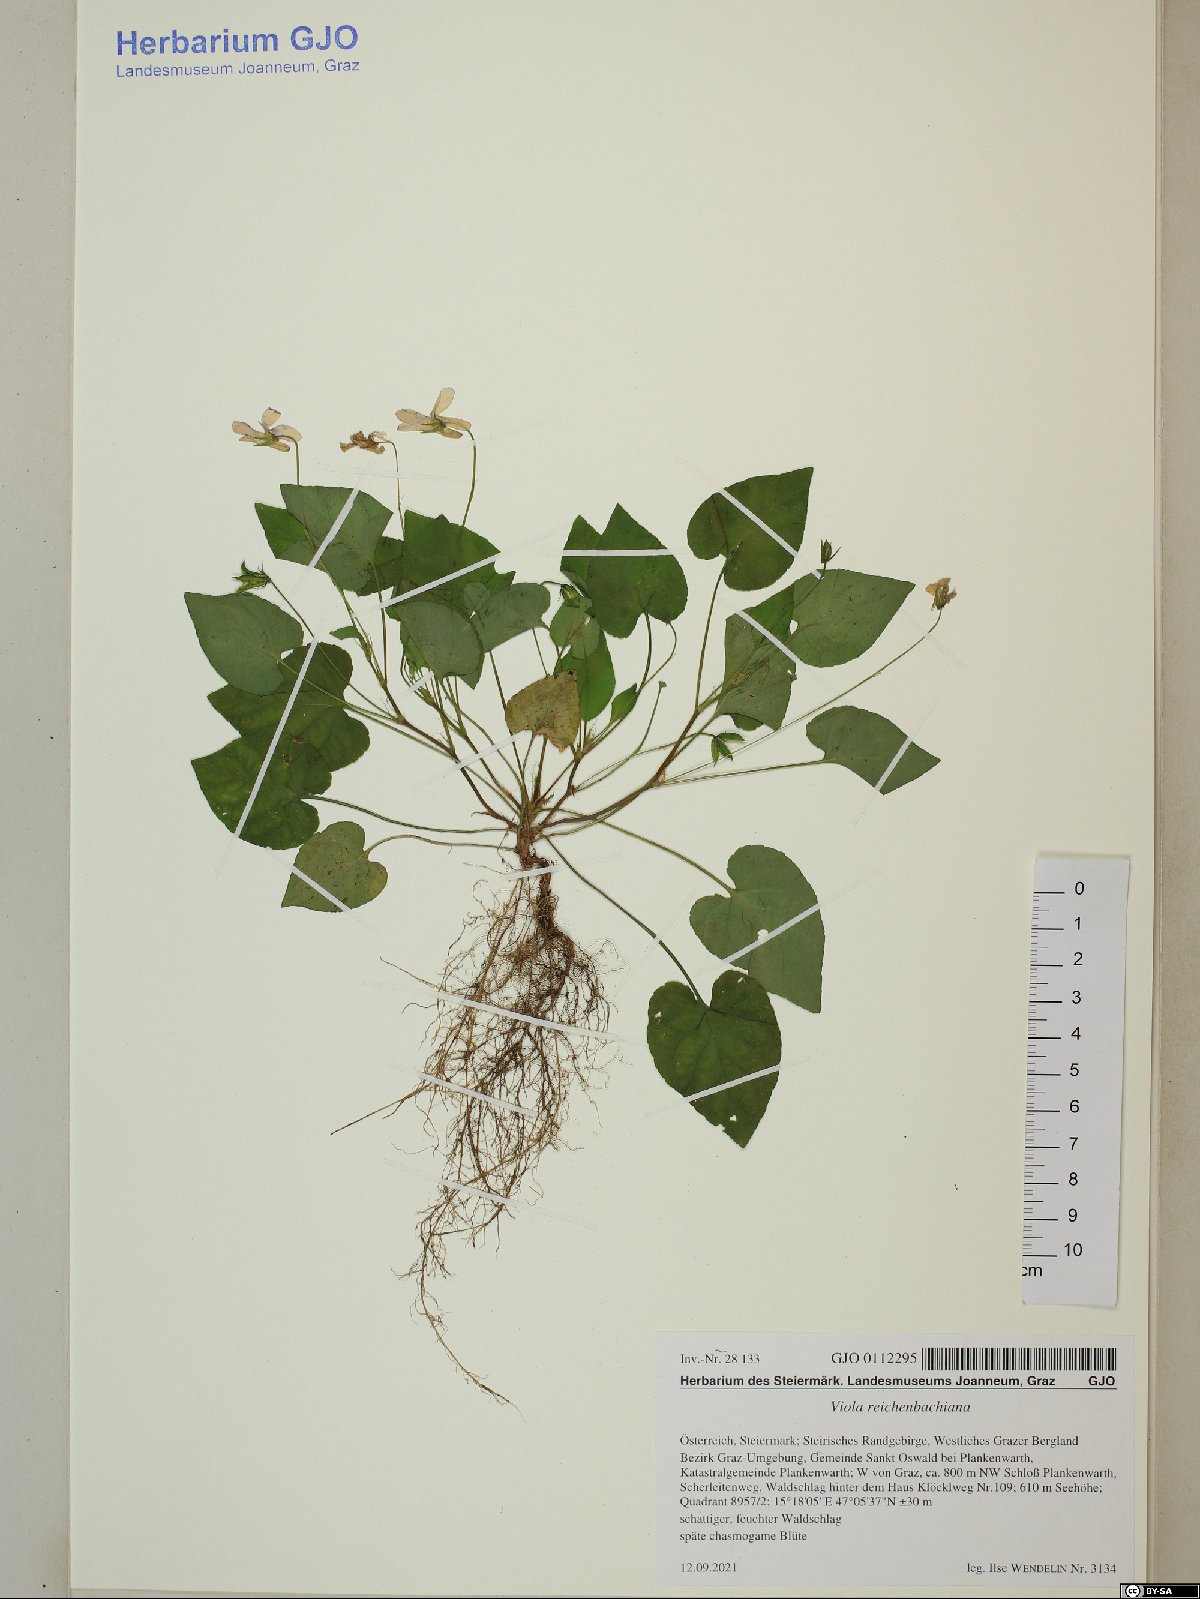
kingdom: Plantae
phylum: Tracheophyta
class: Magnoliopsida
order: Malpighiales
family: Violaceae
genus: Viola
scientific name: Viola reichenbachiana
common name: Early dog-violet
